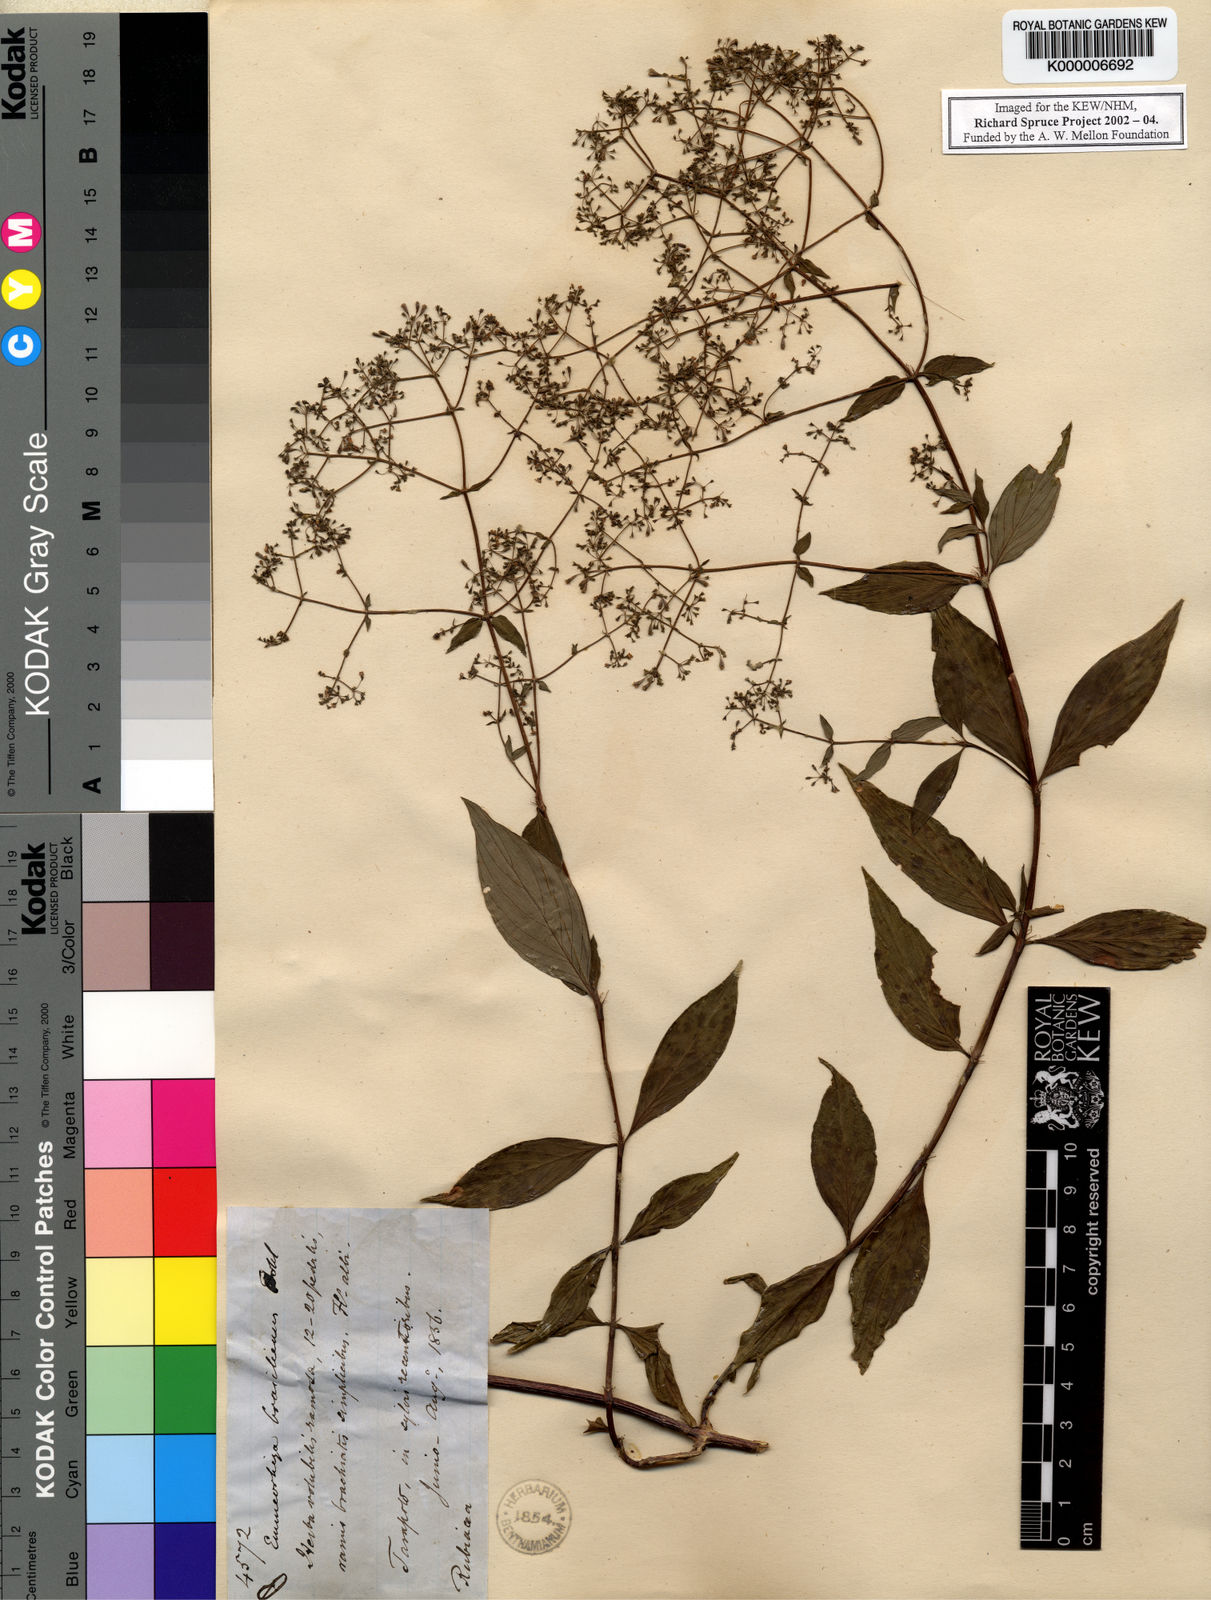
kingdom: Plantae
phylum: Tracheophyta
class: Magnoliopsida
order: Gentianales
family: Rubiaceae
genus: Emmeorhiza
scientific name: Emmeorhiza umbellata
